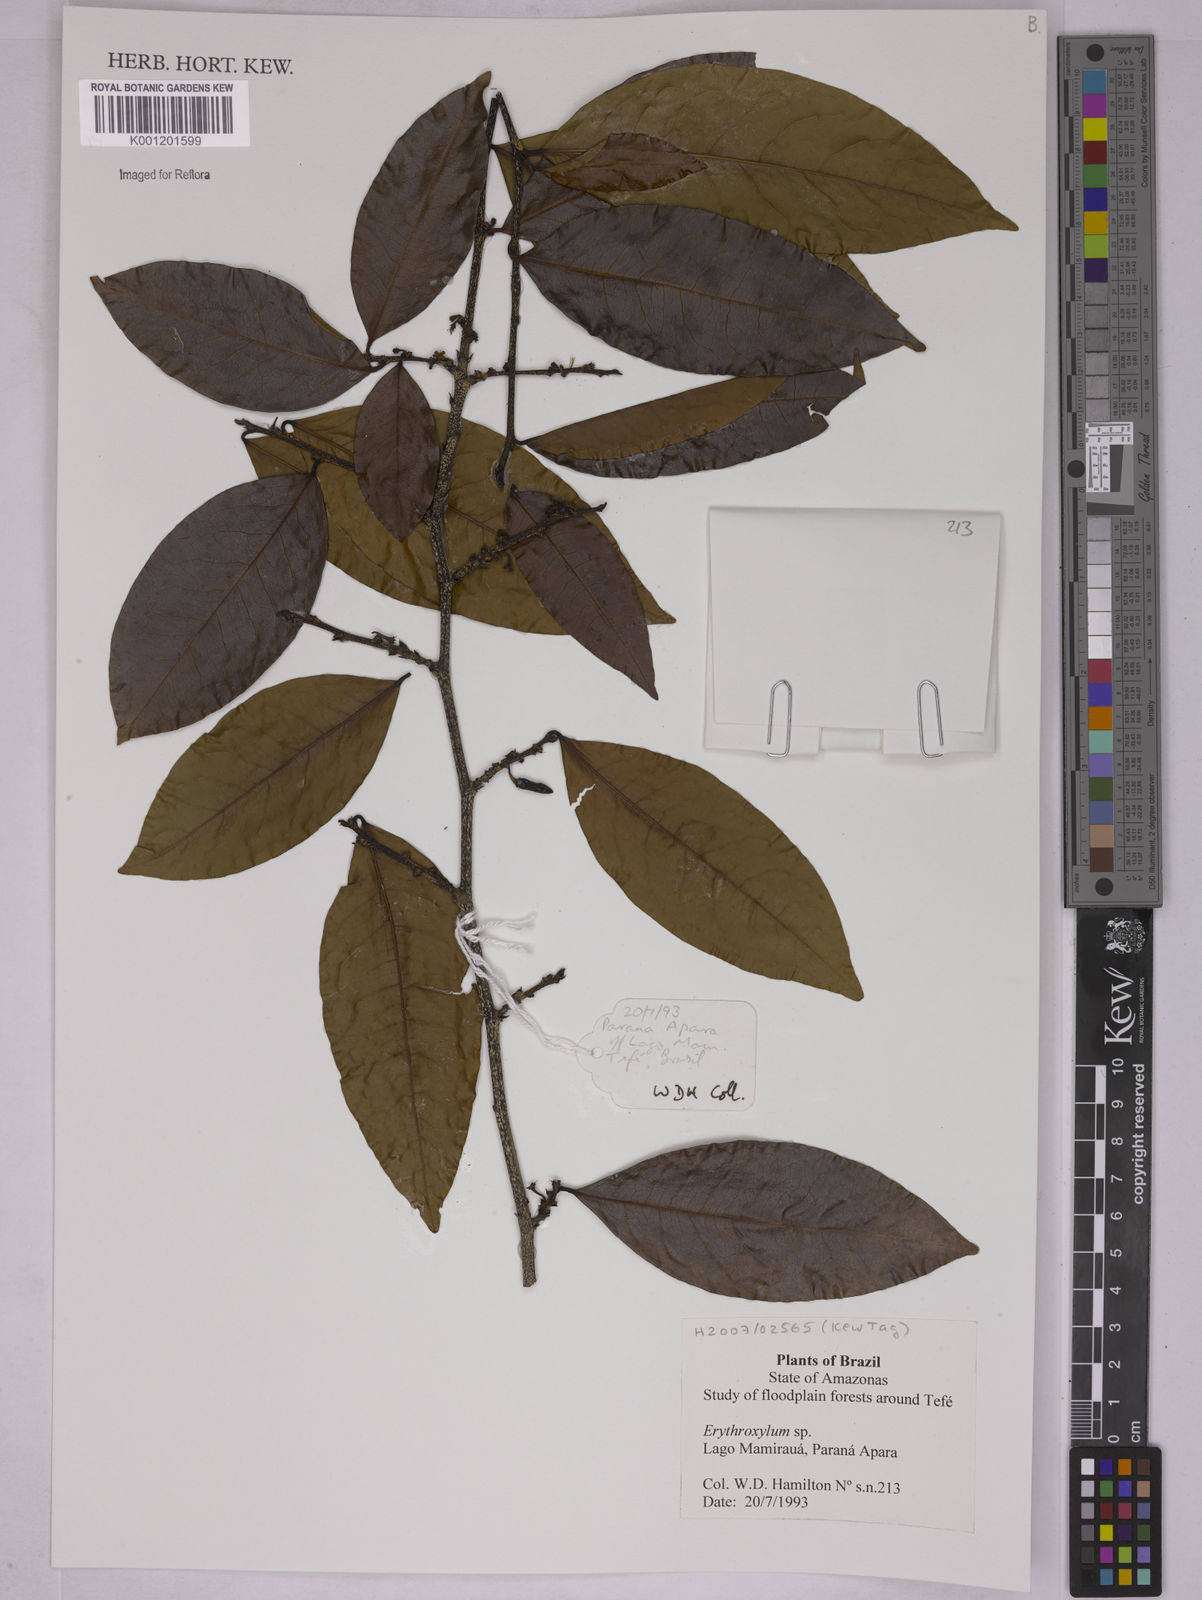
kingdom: Plantae
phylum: Tracheophyta
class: Magnoliopsida
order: Malpighiales
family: Erythroxylaceae
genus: Erythroxylum
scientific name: Erythroxylum
